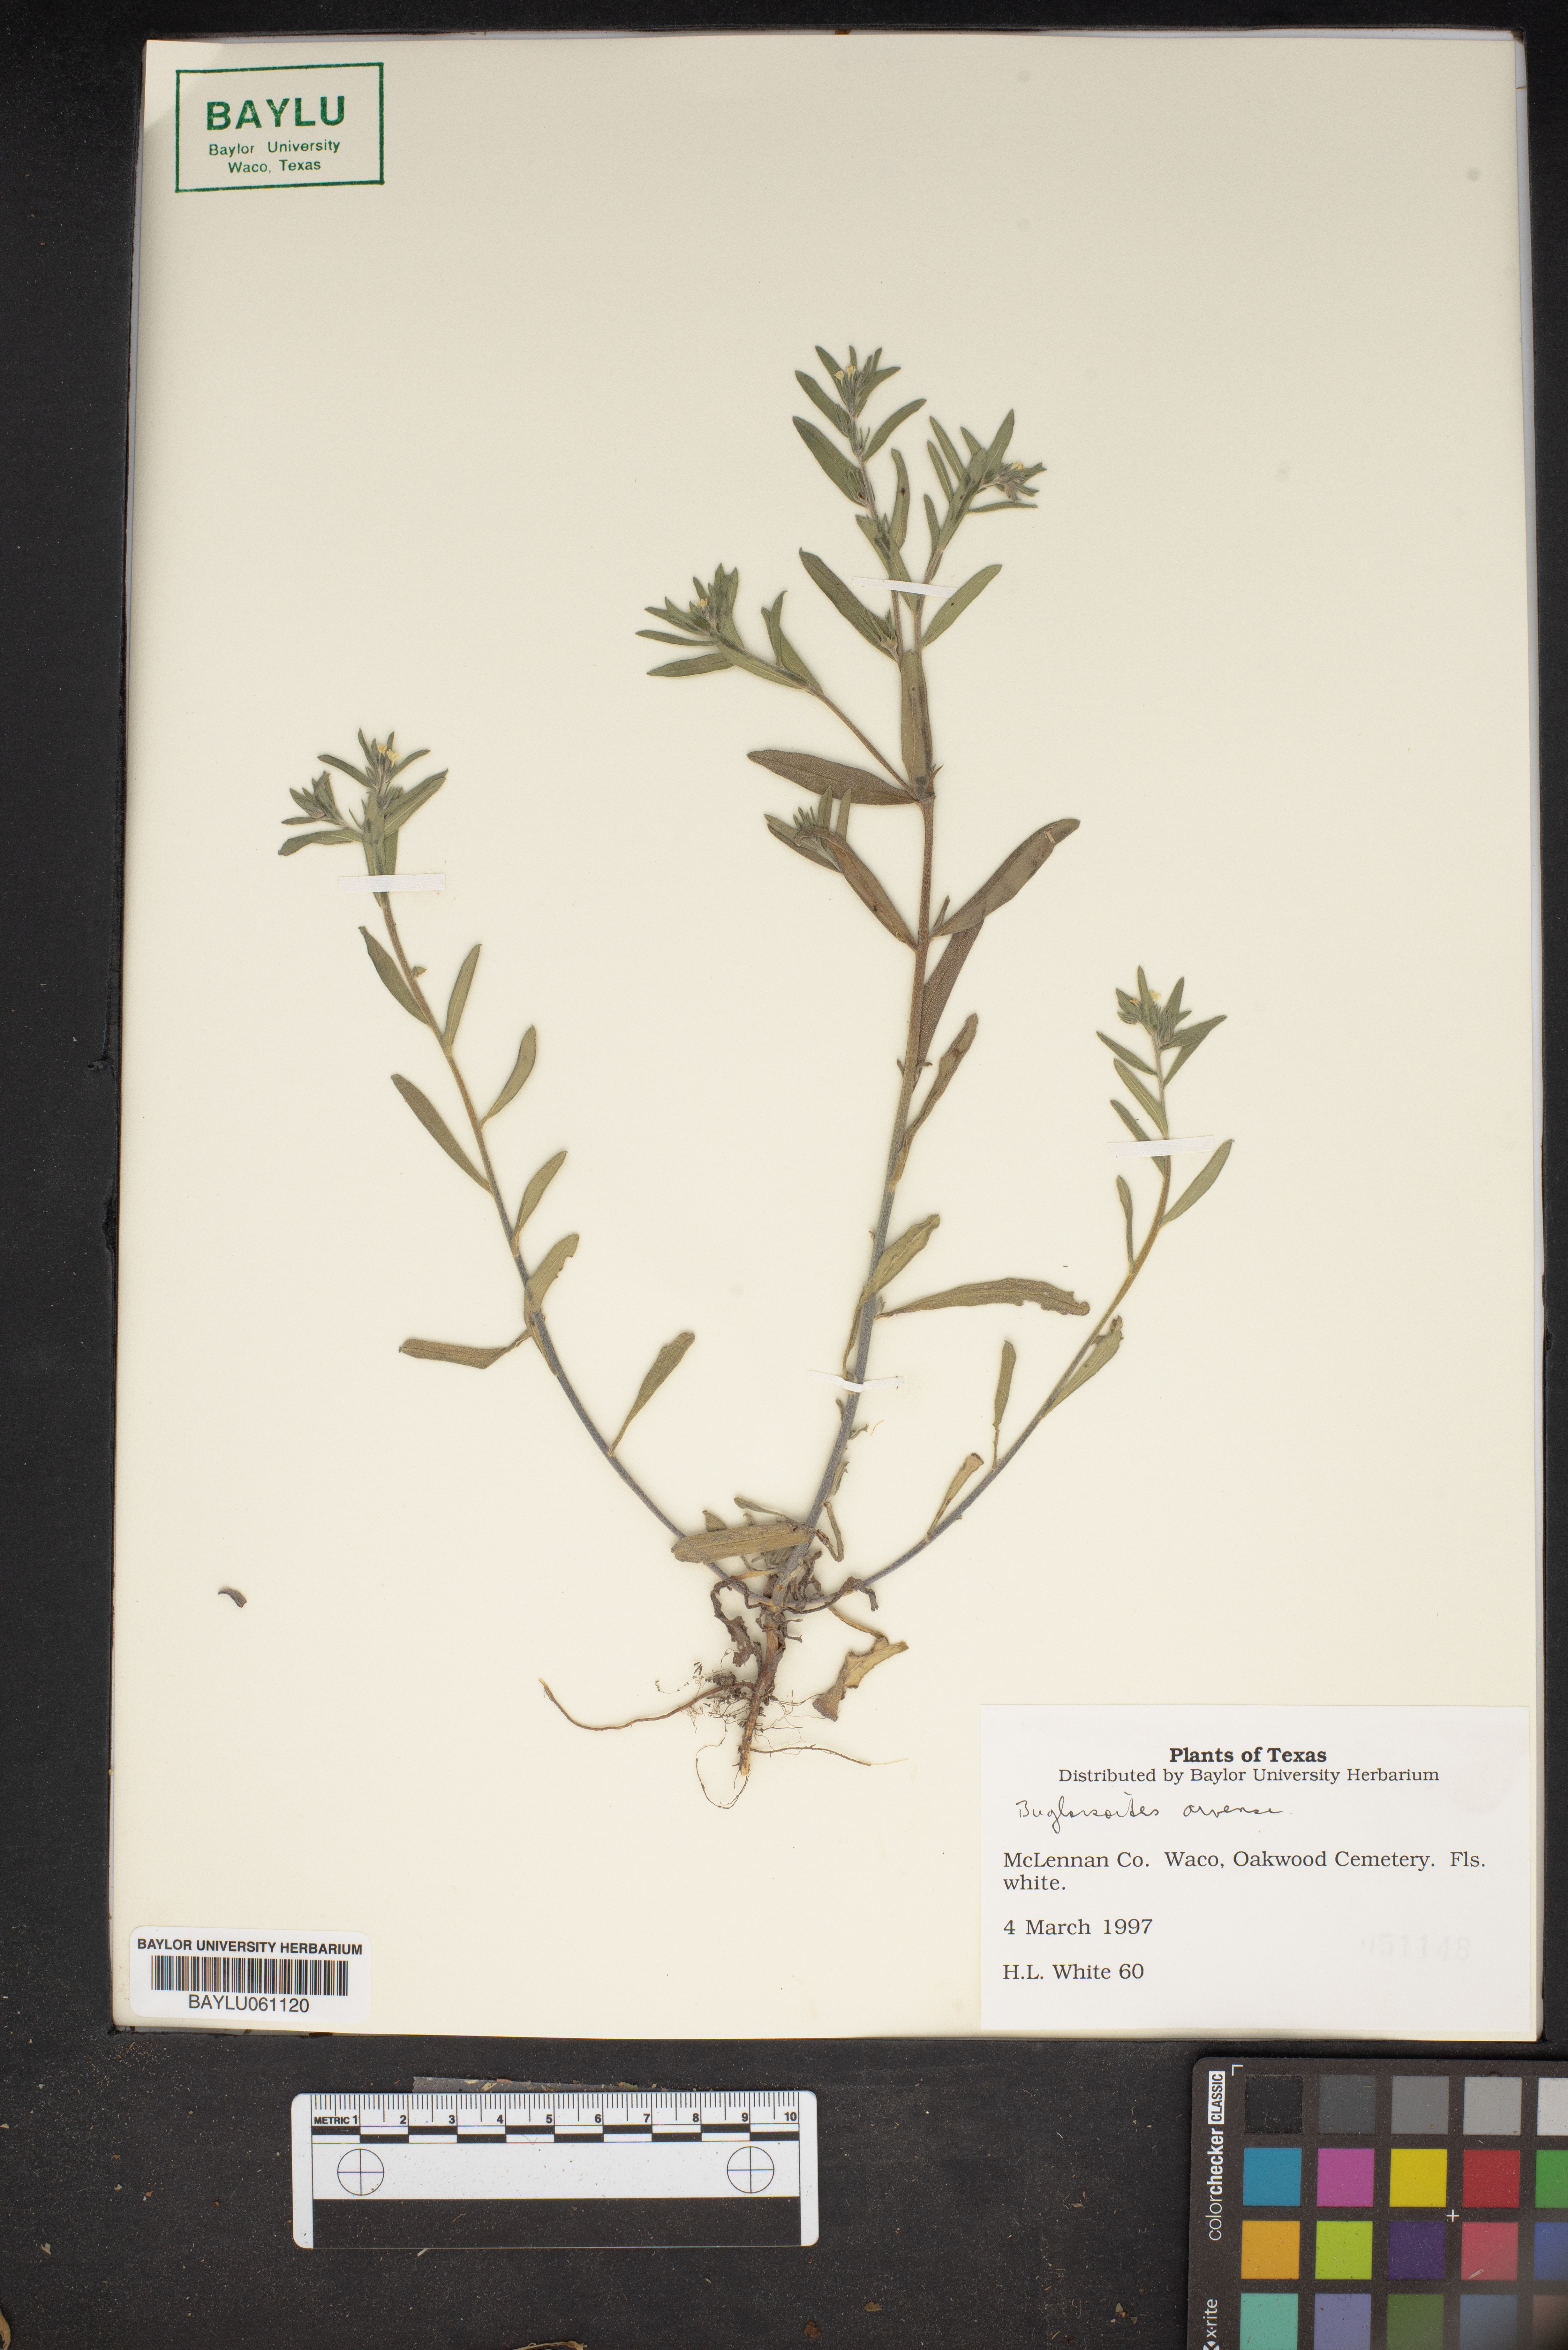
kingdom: Plantae
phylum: Tracheophyta
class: Magnoliopsida
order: Boraginales
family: Boraginaceae
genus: Buglossoides
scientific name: Buglossoides arvensis
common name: Corn gromwell
